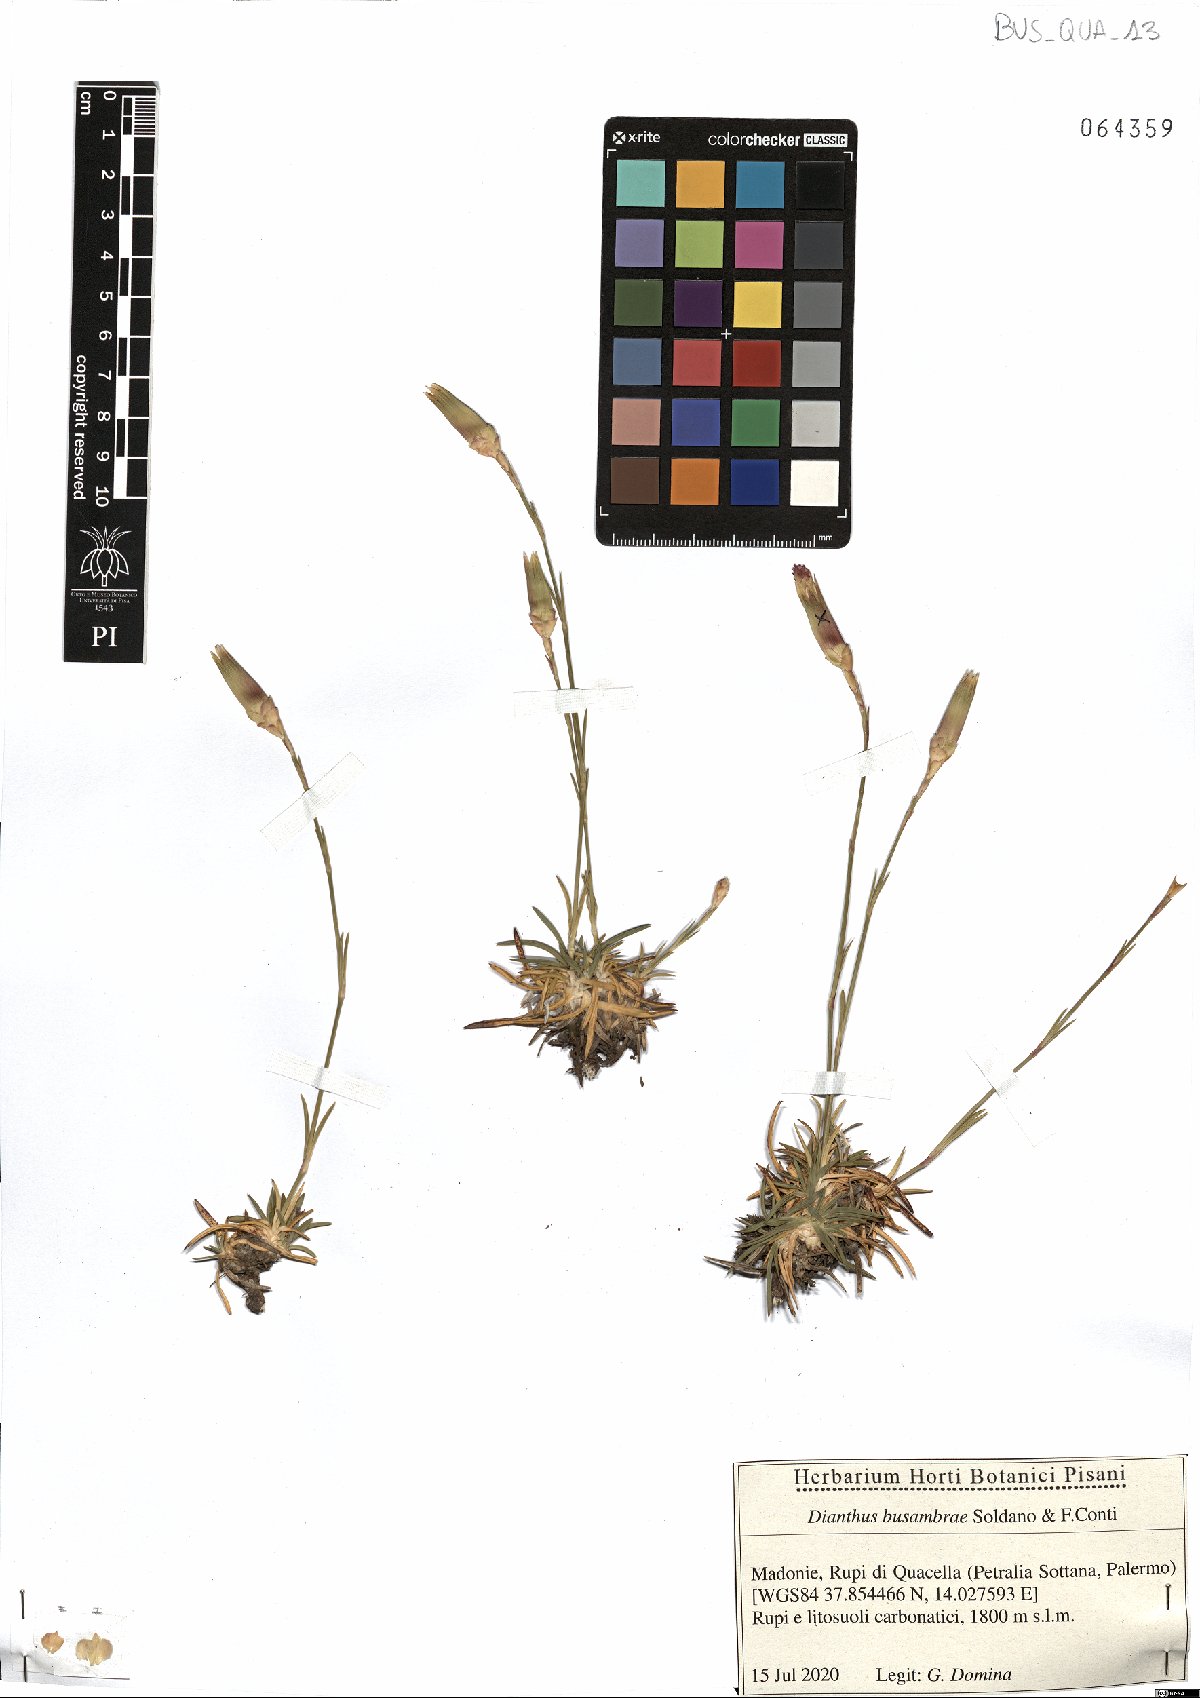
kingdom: Plantae
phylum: Tracheophyta
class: Magnoliopsida
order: Caryophyllales
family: Caryophyllaceae
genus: Dianthus
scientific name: Dianthus busambrae
